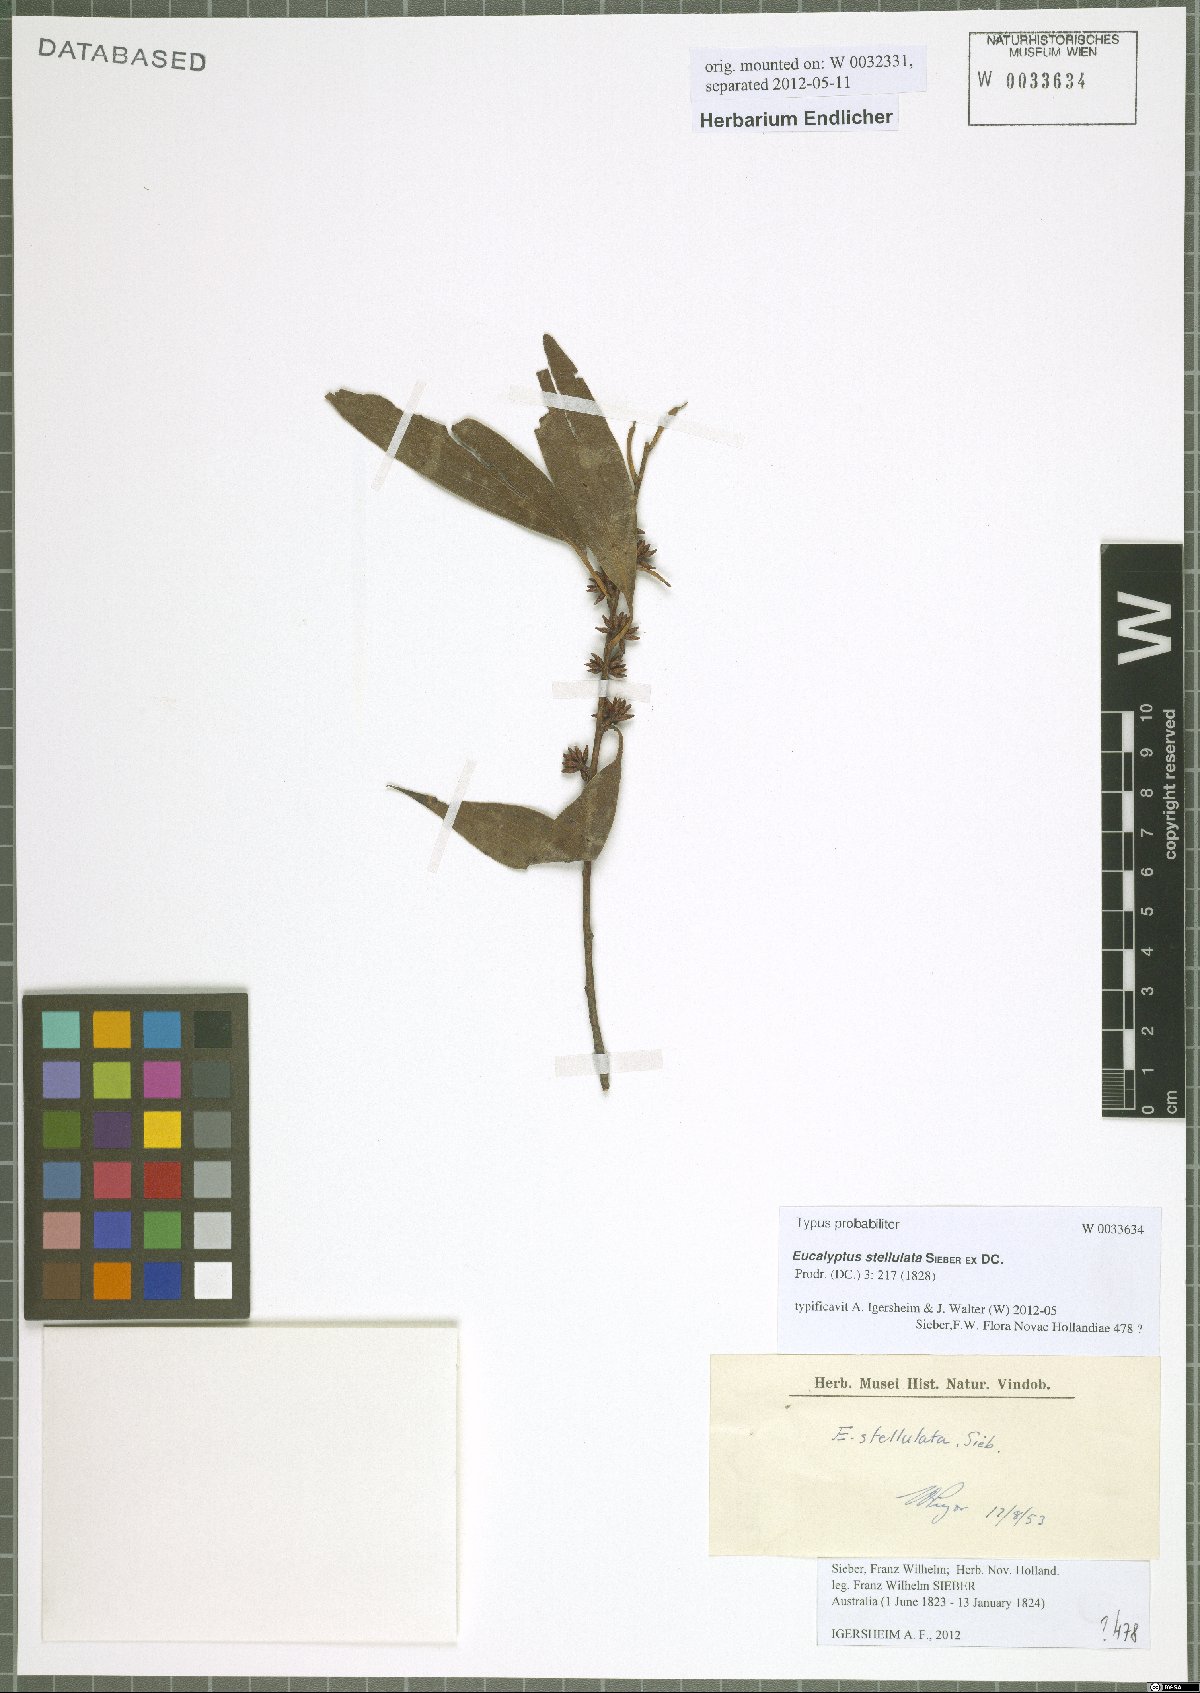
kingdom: Plantae
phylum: Tracheophyta
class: Magnoliopsida
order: Myrtales
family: Myrtaceae
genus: Eucalyptus
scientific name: Eucalyptus stellulata
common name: Black sallee
